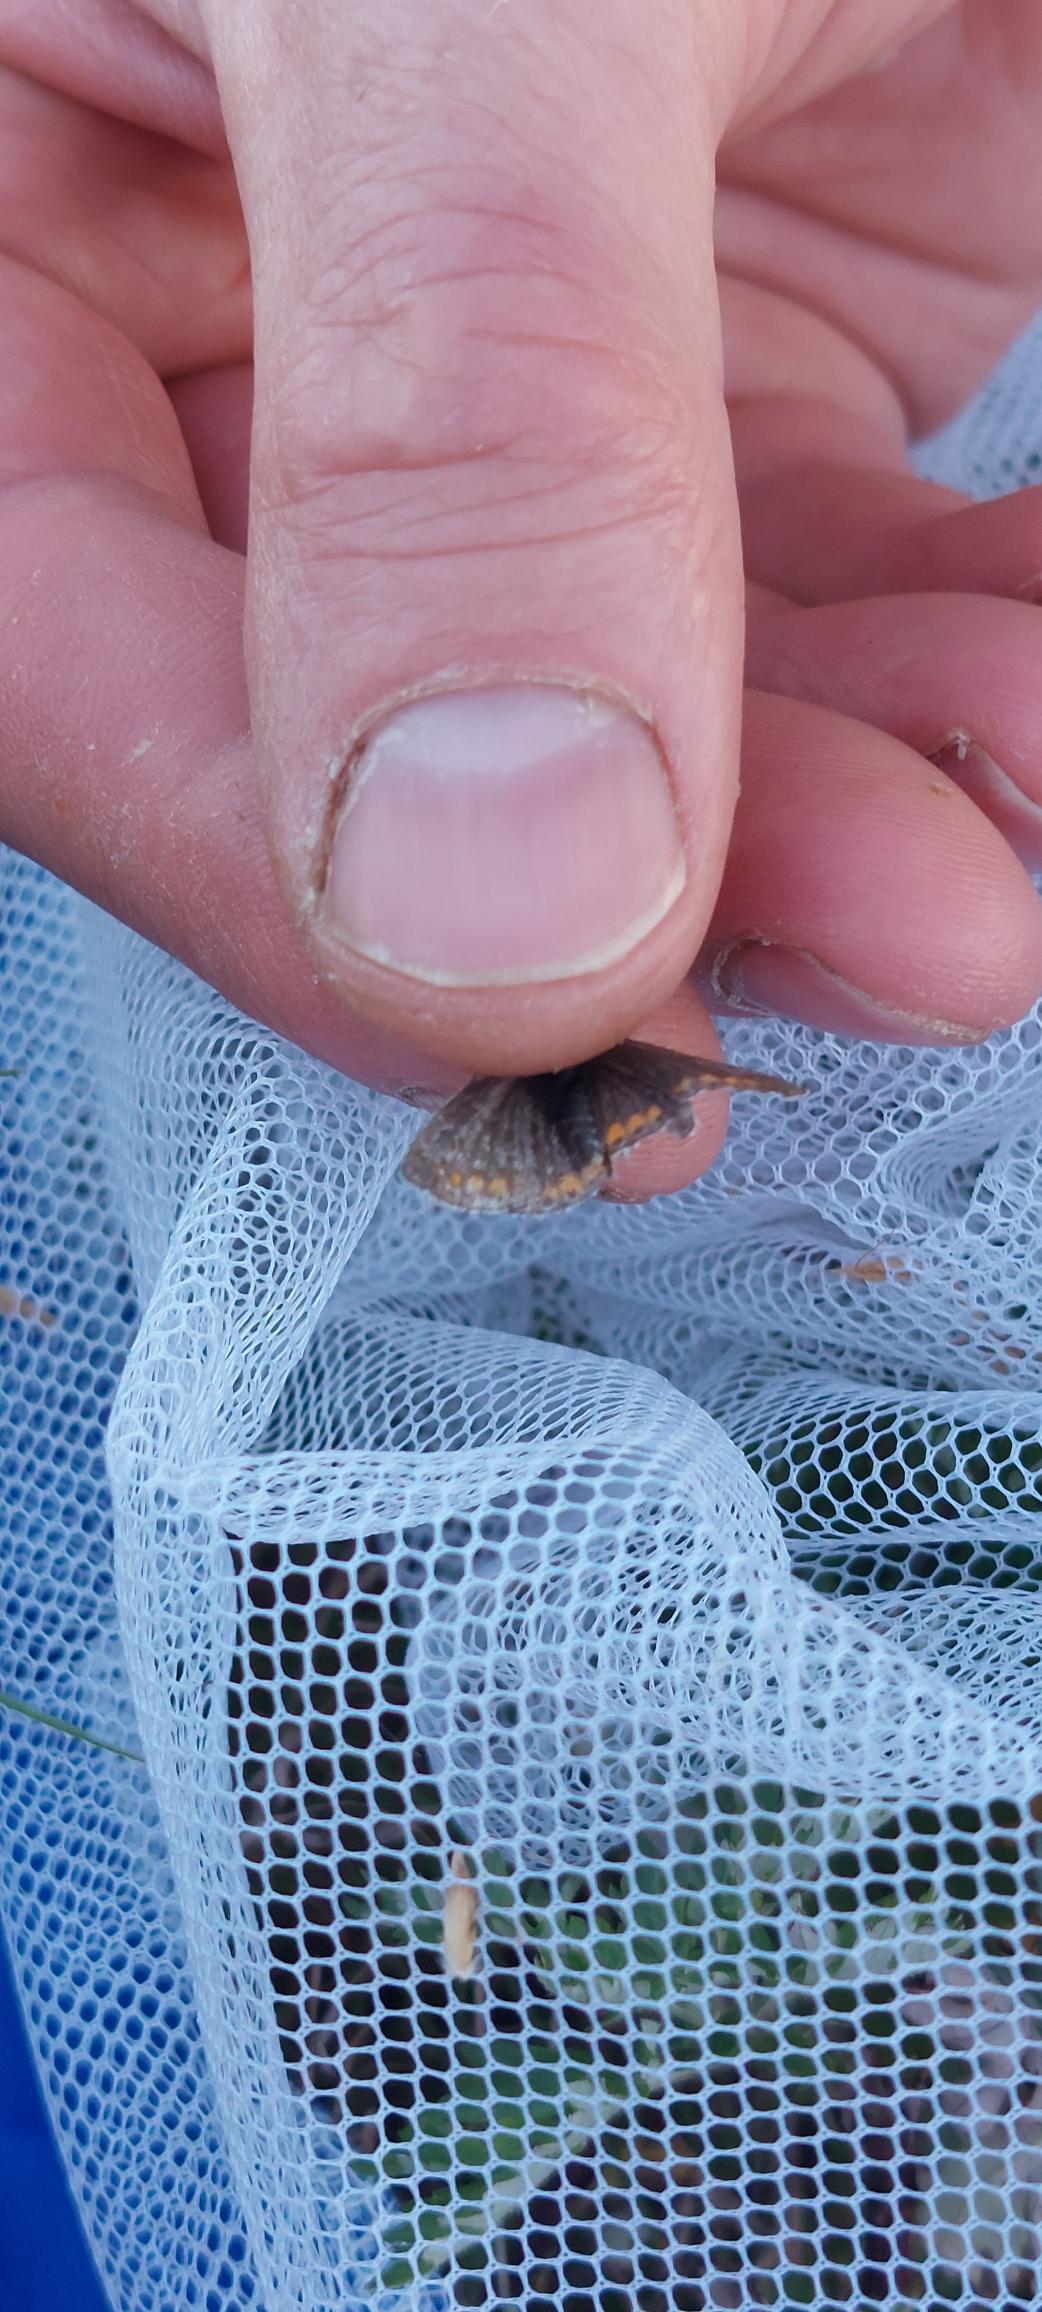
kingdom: Animalia
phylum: Arthropoda
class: Insecta
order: Lepidoptera
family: Lycaenidae
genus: Aricia
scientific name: Aricia agestis
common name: Rødplettet blåfugl
